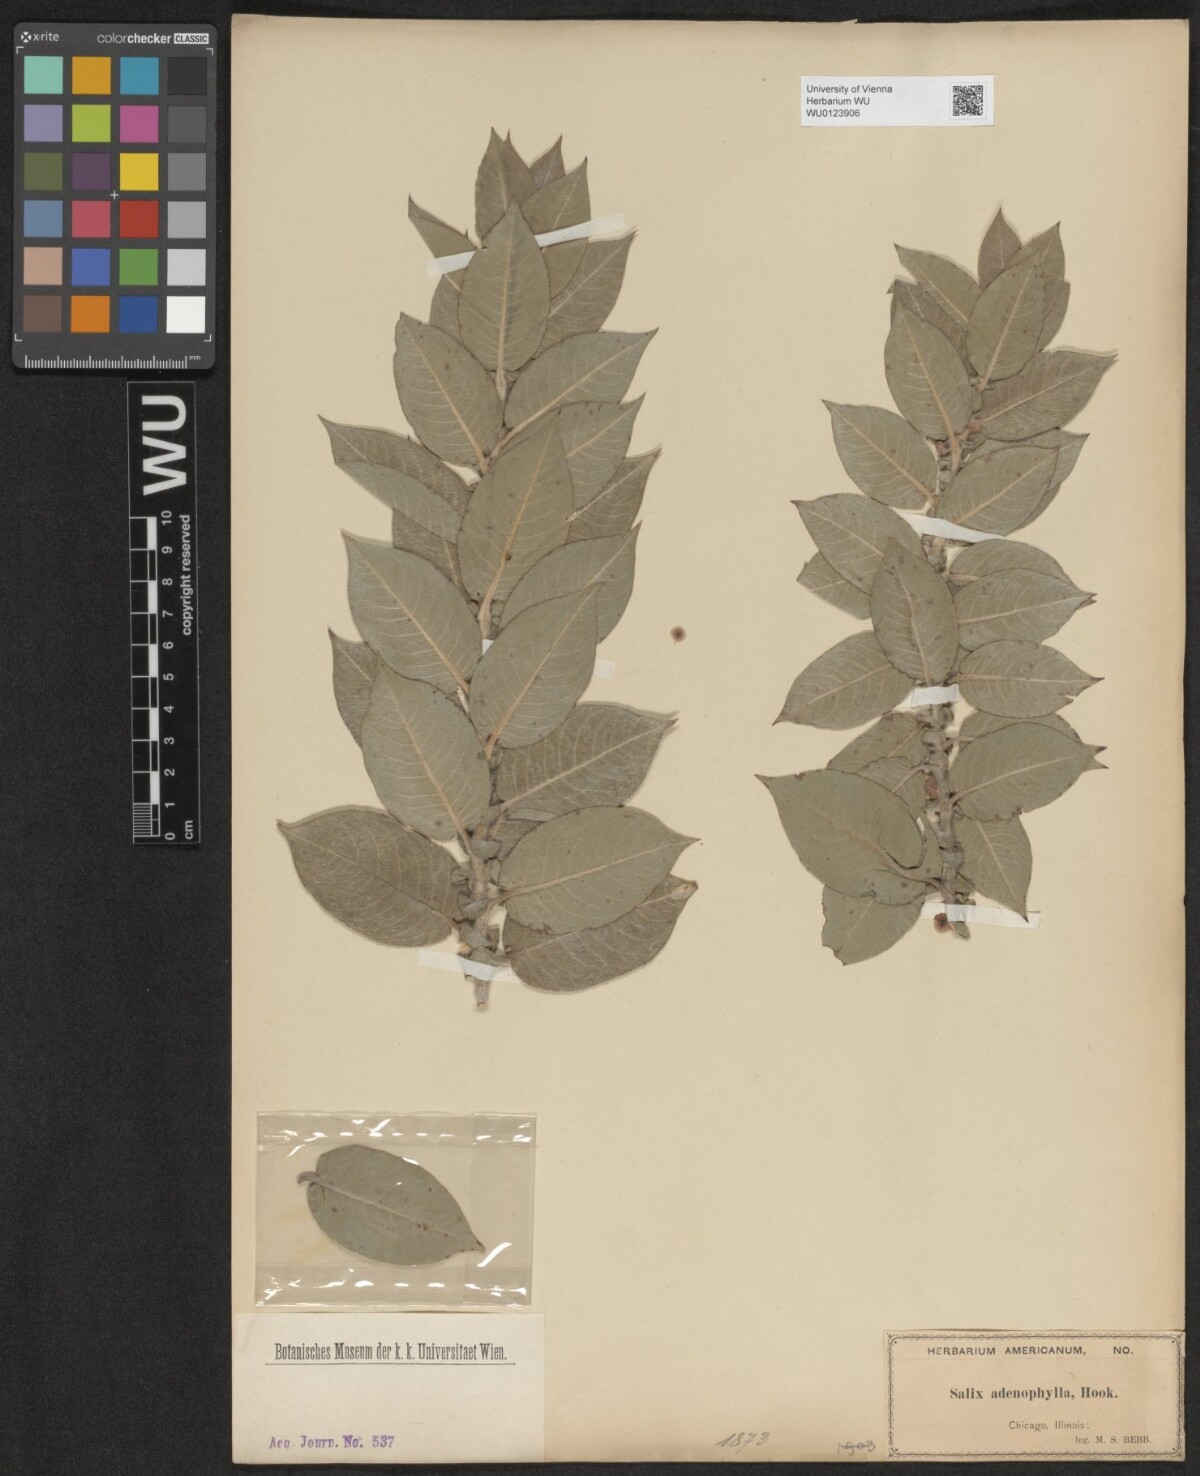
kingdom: Plantae
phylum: Tracheophyta
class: Magnoliopsida
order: Malpighiales
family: Salicaceae
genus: Salix
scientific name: Salix cordata
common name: Heart-leaf willow
